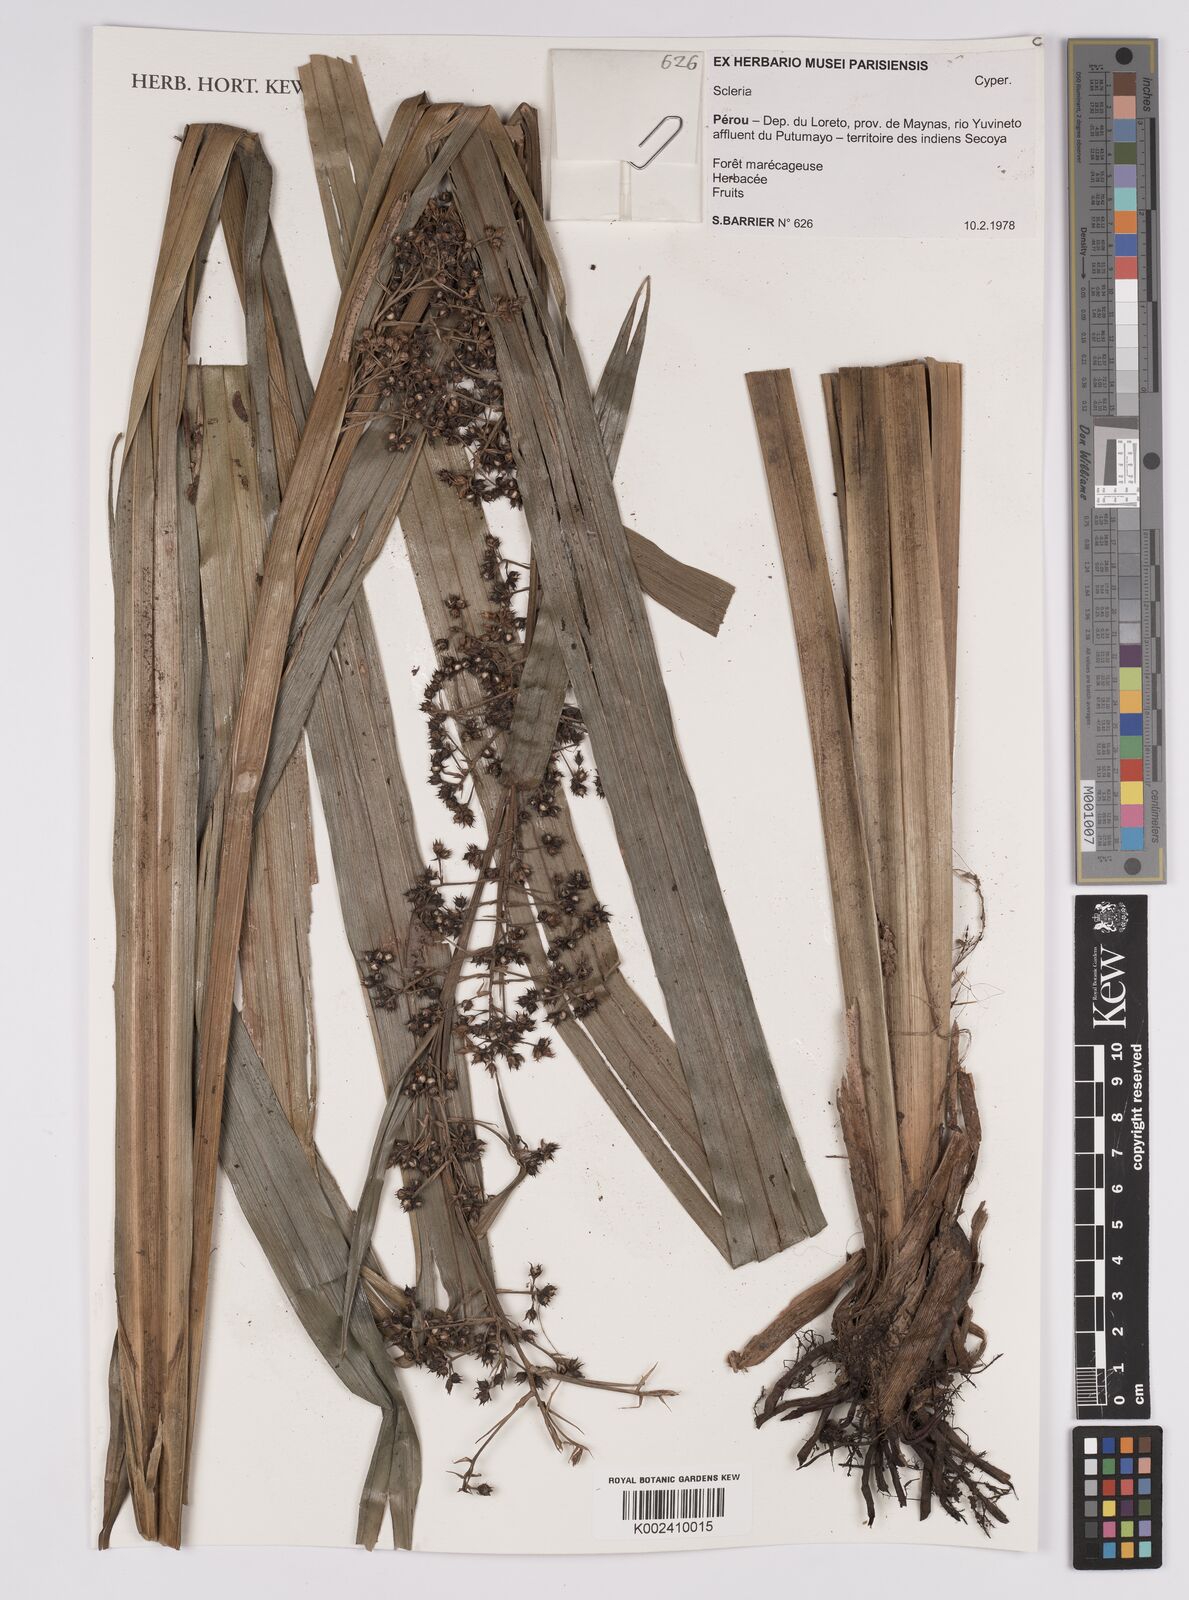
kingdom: Plantae
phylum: Tracheophyta
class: Liliopsida
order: Poales
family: Cyperaceae
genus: Scleria
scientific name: Scleria
